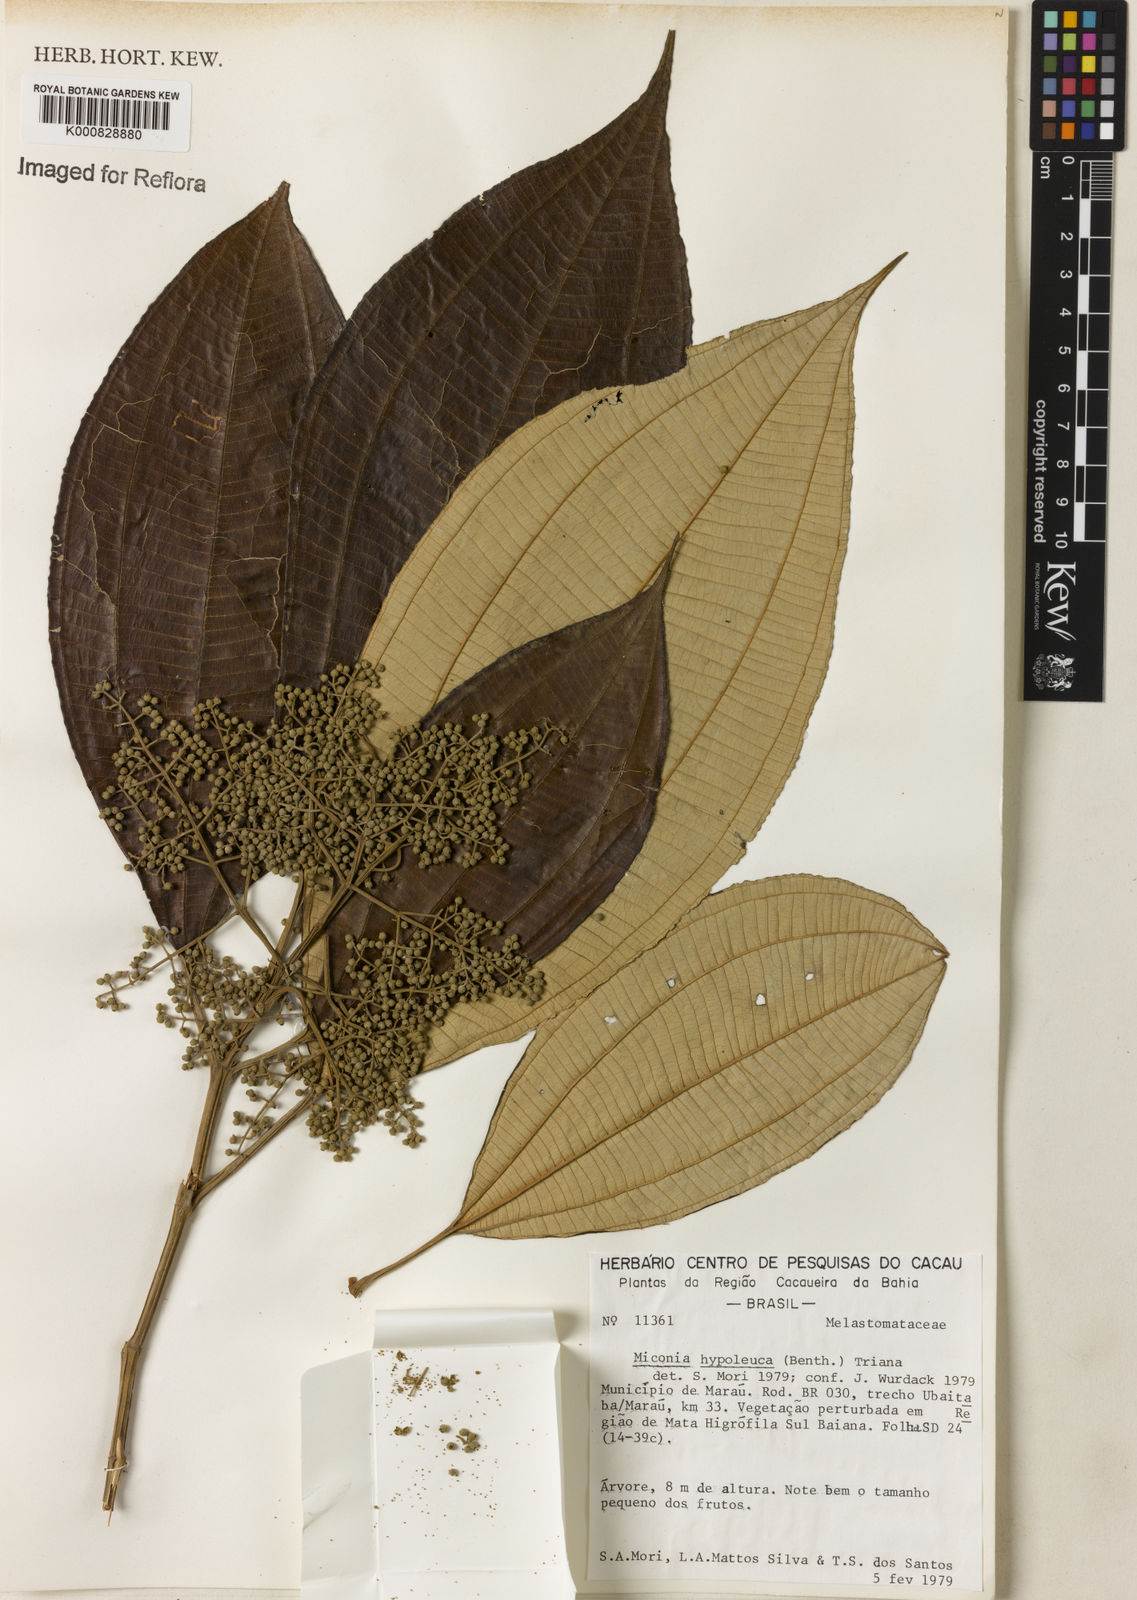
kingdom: Plantae
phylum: Tracheophyta
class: Magnoliopsida
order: Myrtales
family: Melastomataceae
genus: Miconia
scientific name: Miconia hypoleuca
